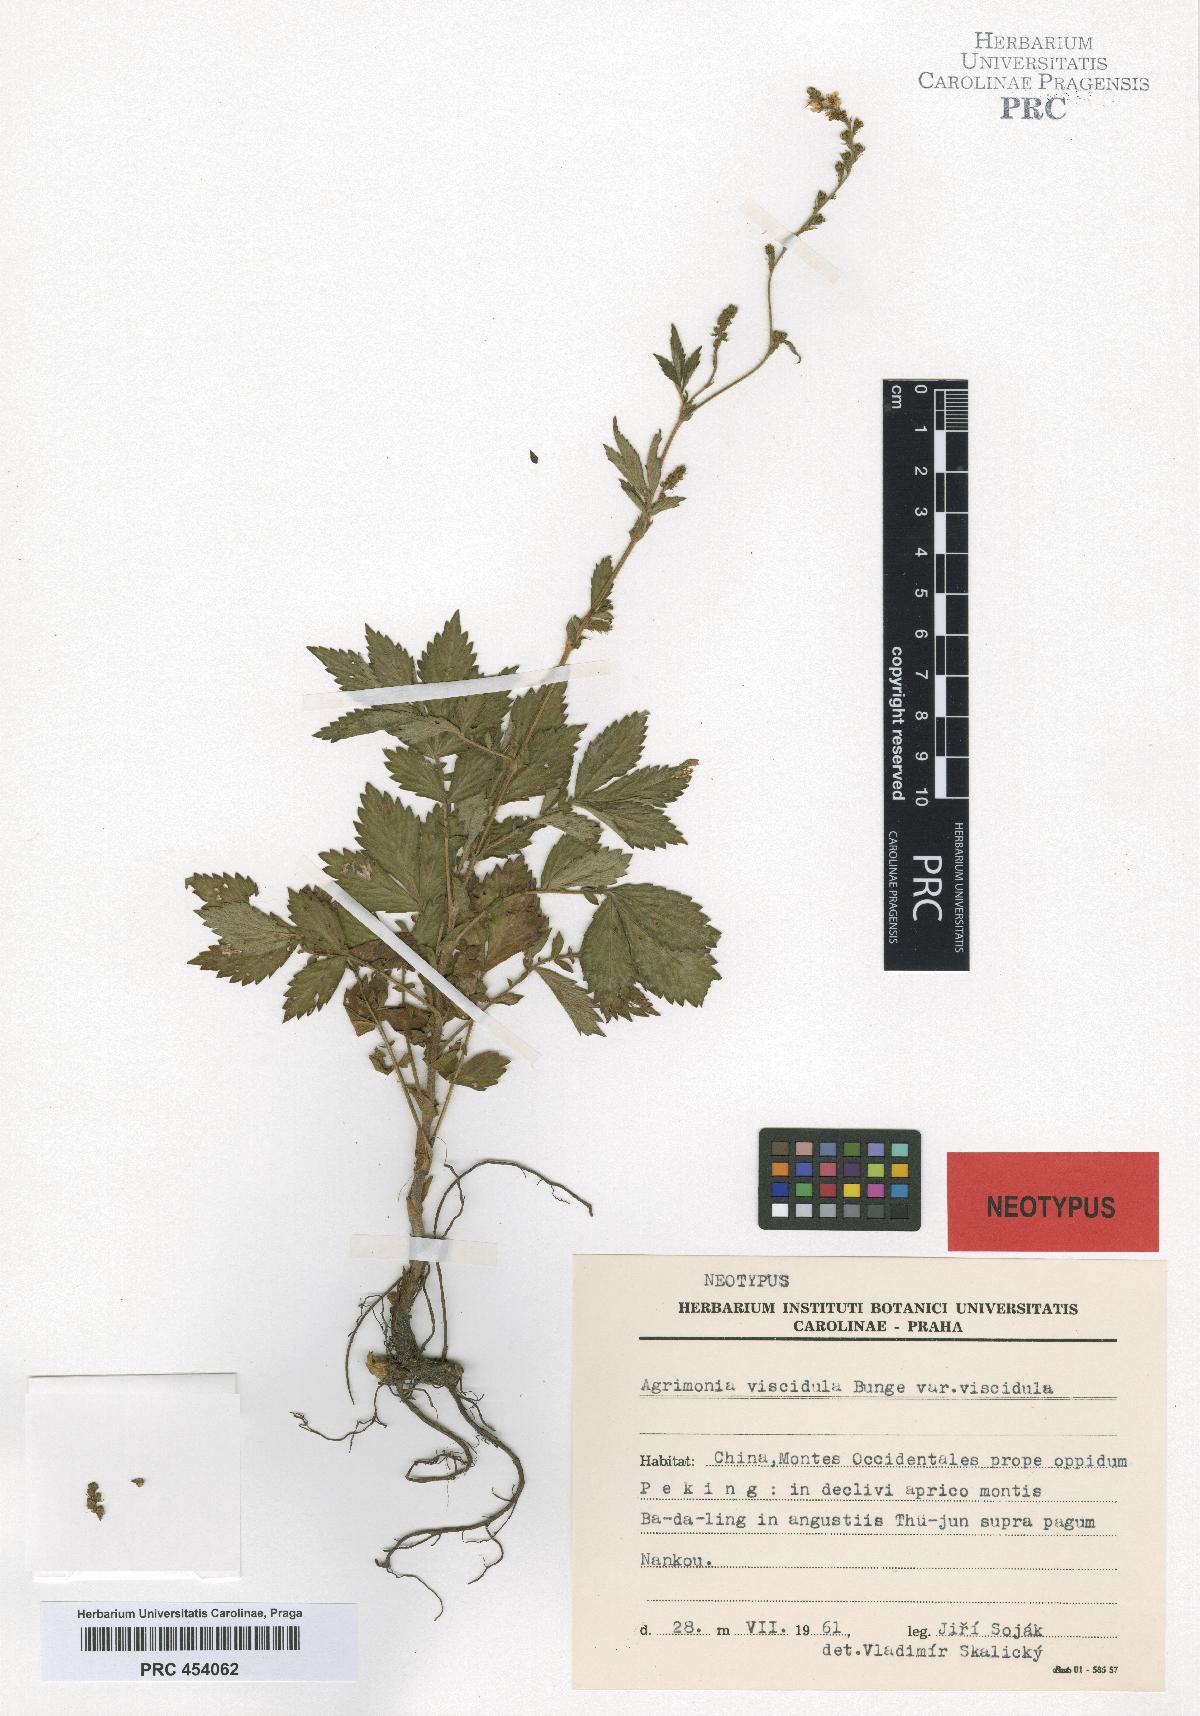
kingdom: Plantae
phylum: Tracheophyta
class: Magnoliopsida
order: Rosales
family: Rosaceae
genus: Agrimonia
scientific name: Agrimonia pilosa
